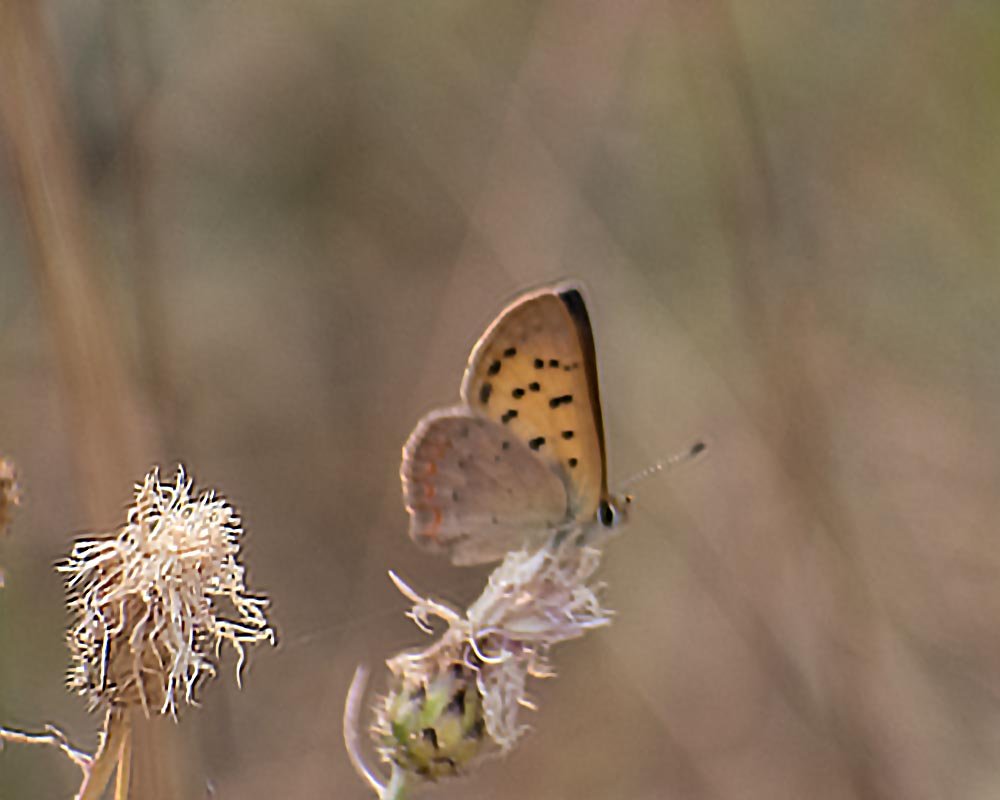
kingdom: Animalia
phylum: Arthropoda
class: Insecta
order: Lepidoptera
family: Sesiidae
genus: Sesia
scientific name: Sesia Lycaena helloides
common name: Purplish Copper
